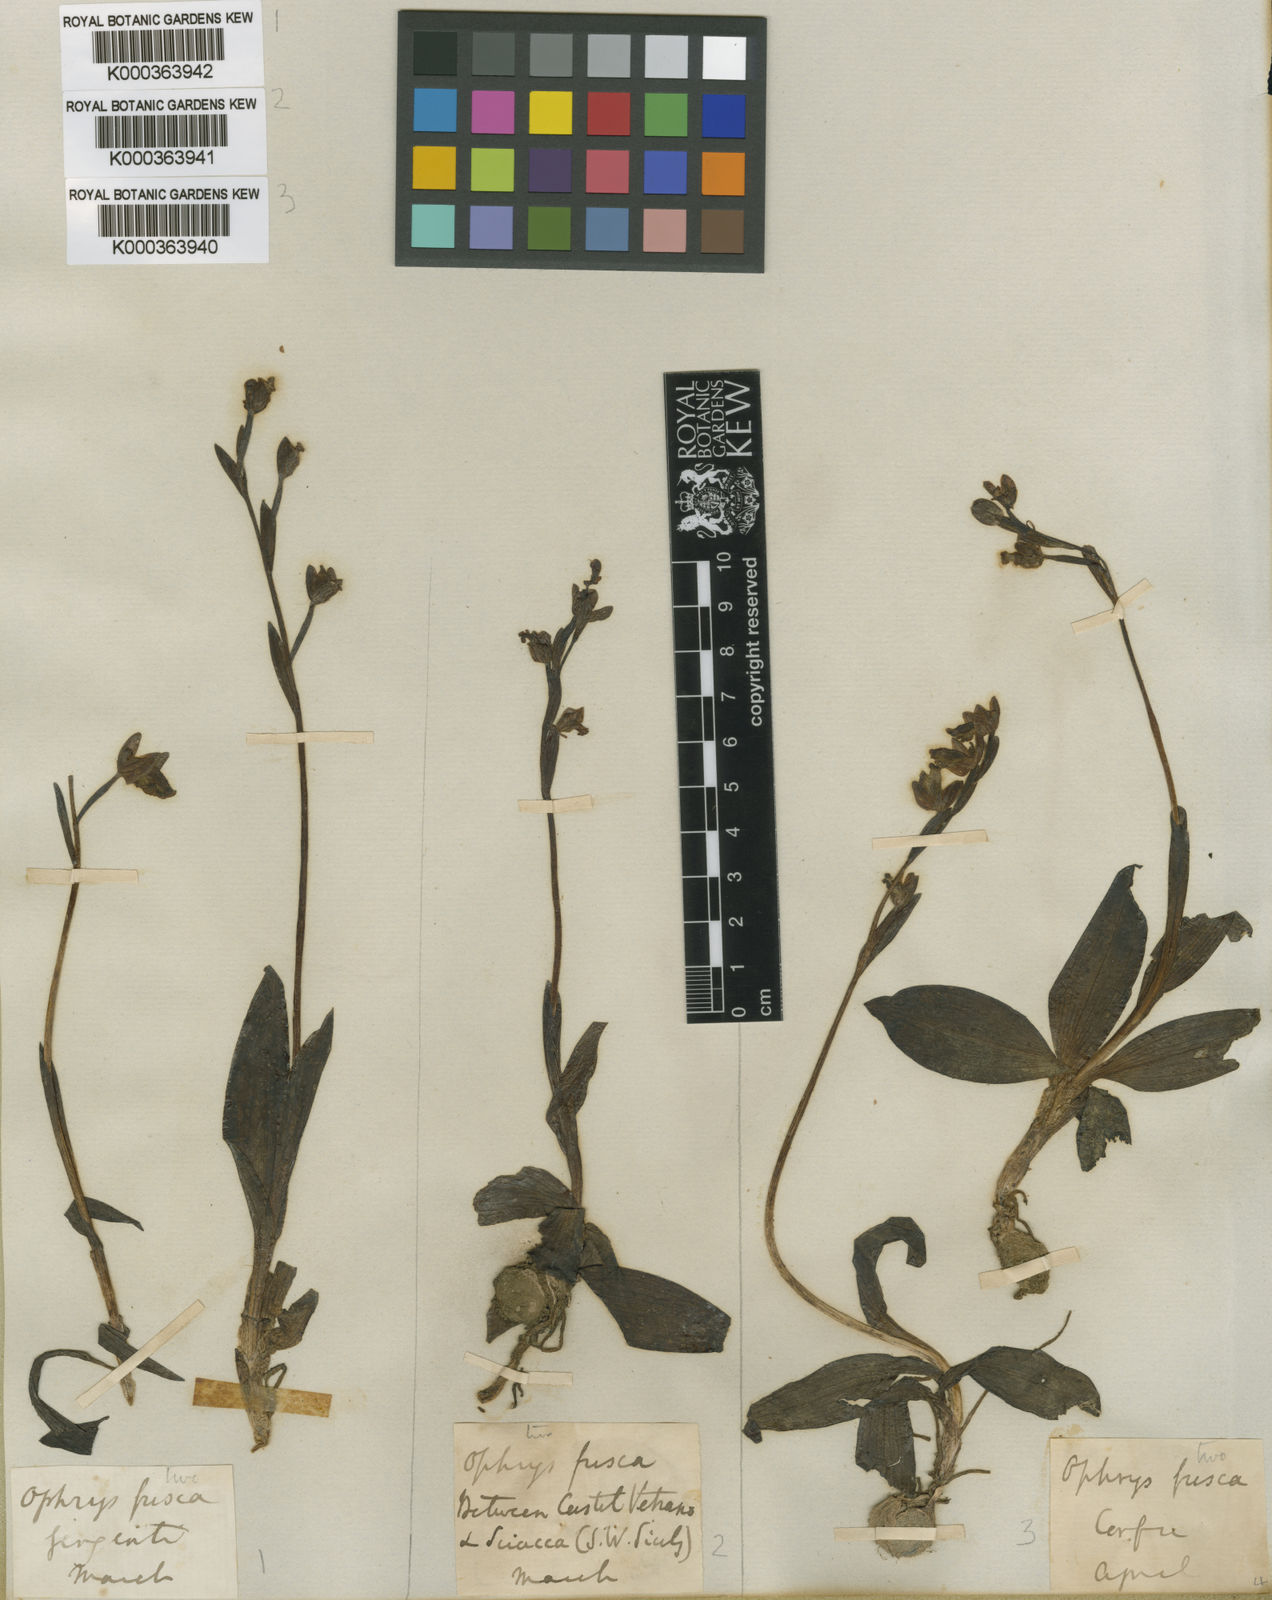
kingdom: Plantae
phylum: Tracheophyta
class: Liliopsida
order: Asparagales
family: Orchidaceae
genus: Ophrys
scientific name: Ophrys fusca
